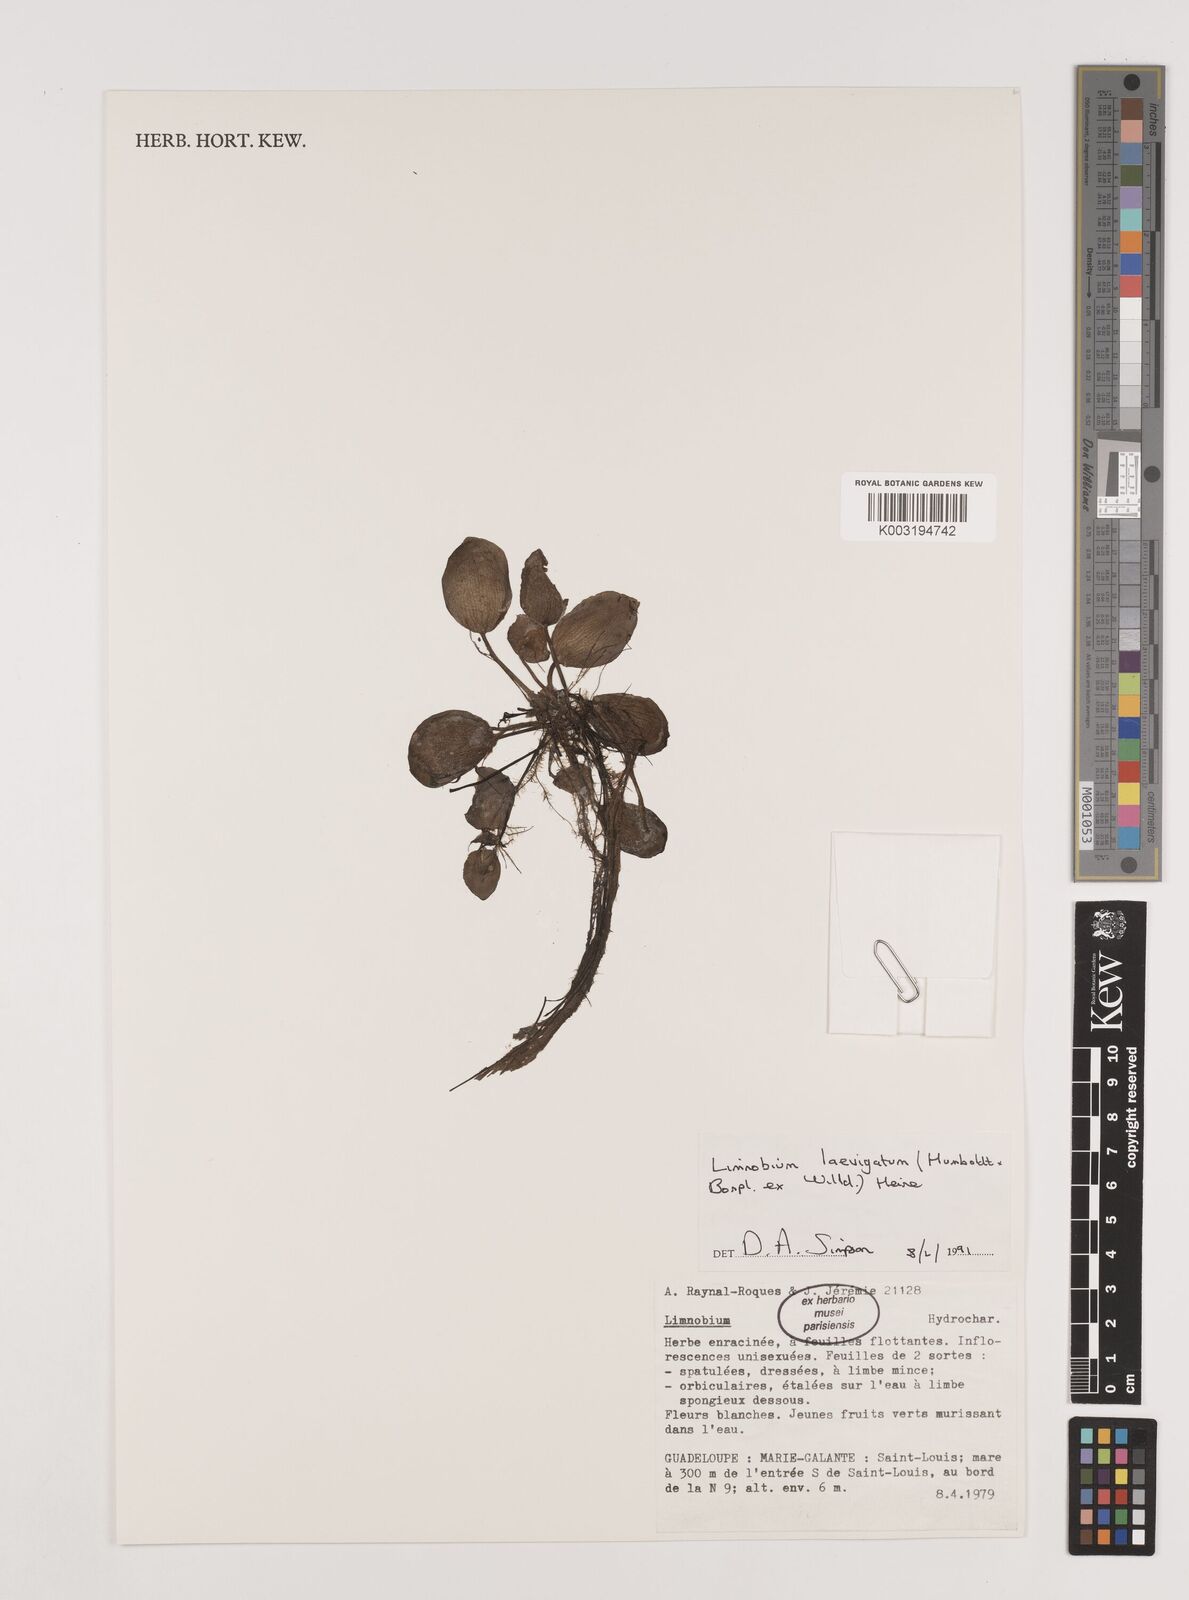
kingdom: Plantae
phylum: Tracheophyta
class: Liliopsida
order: Alismatales
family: Hydrocharitaceae
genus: Hydrocharis
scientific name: Hydrocharis laevigata
